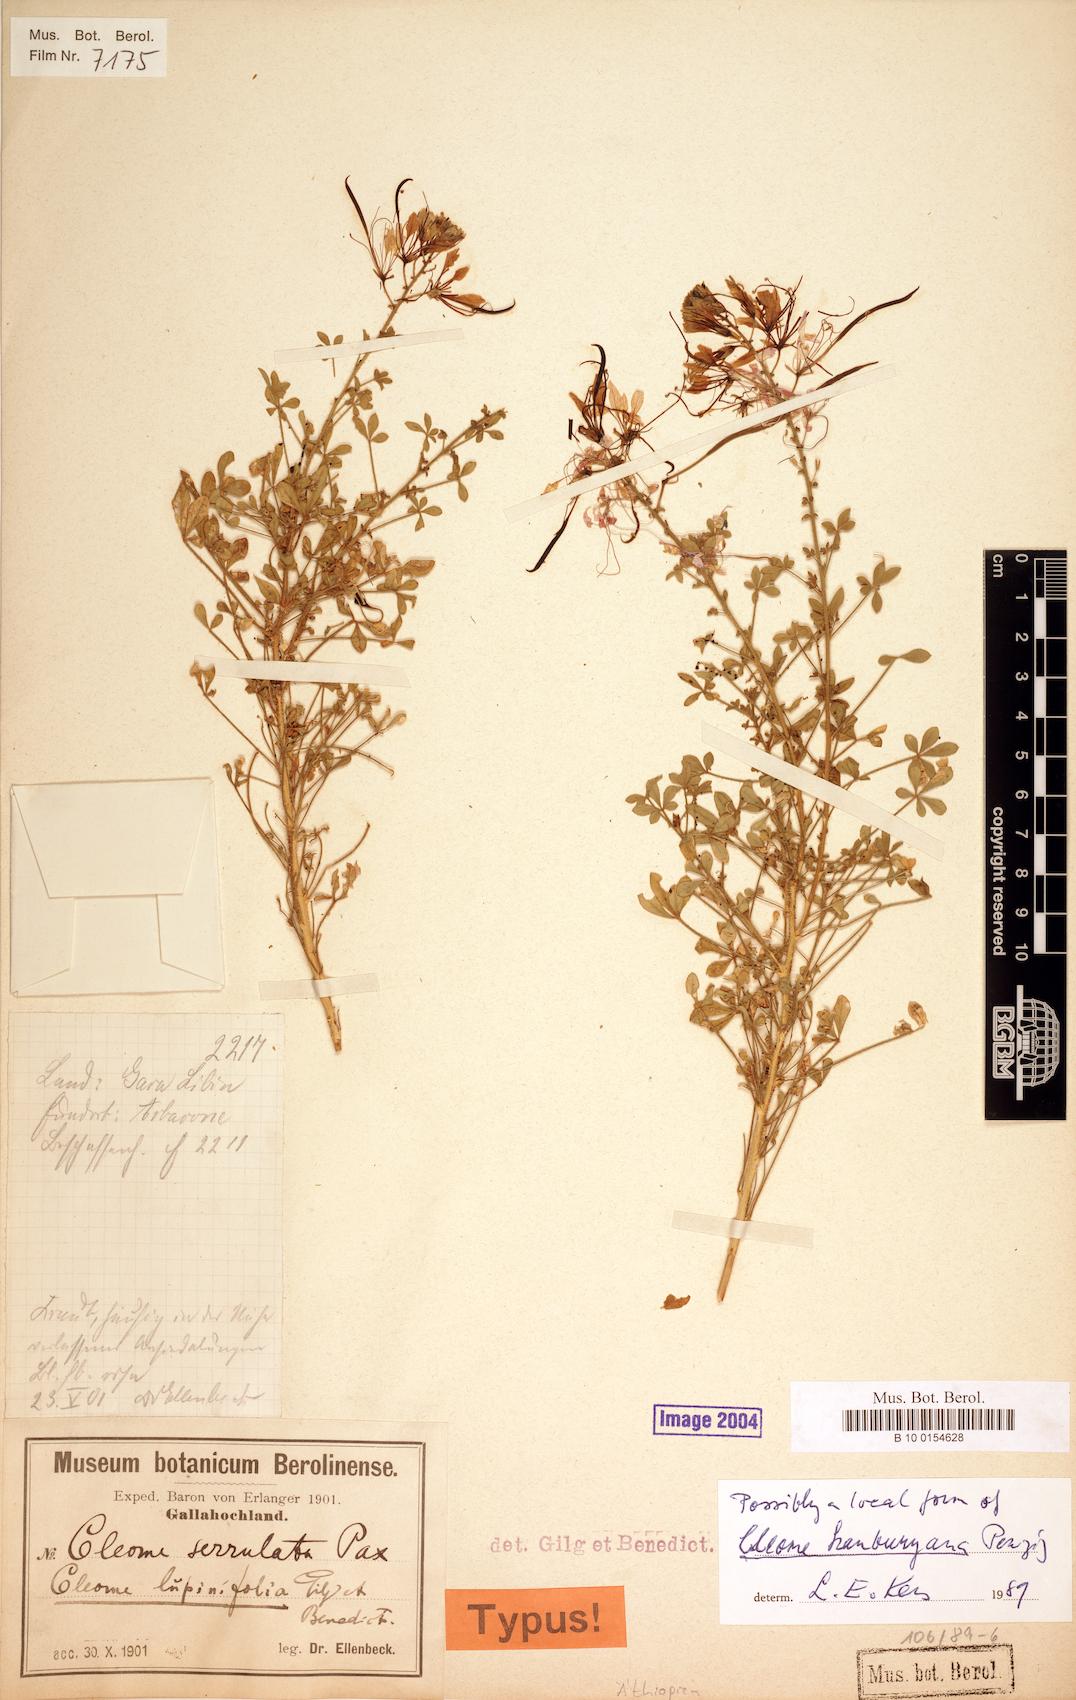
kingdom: Plantae
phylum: Tracheophyta
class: Magnoliopsida
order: Brassicales
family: Cleomaceae
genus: Sieruela
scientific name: Sieruela hanburyana
